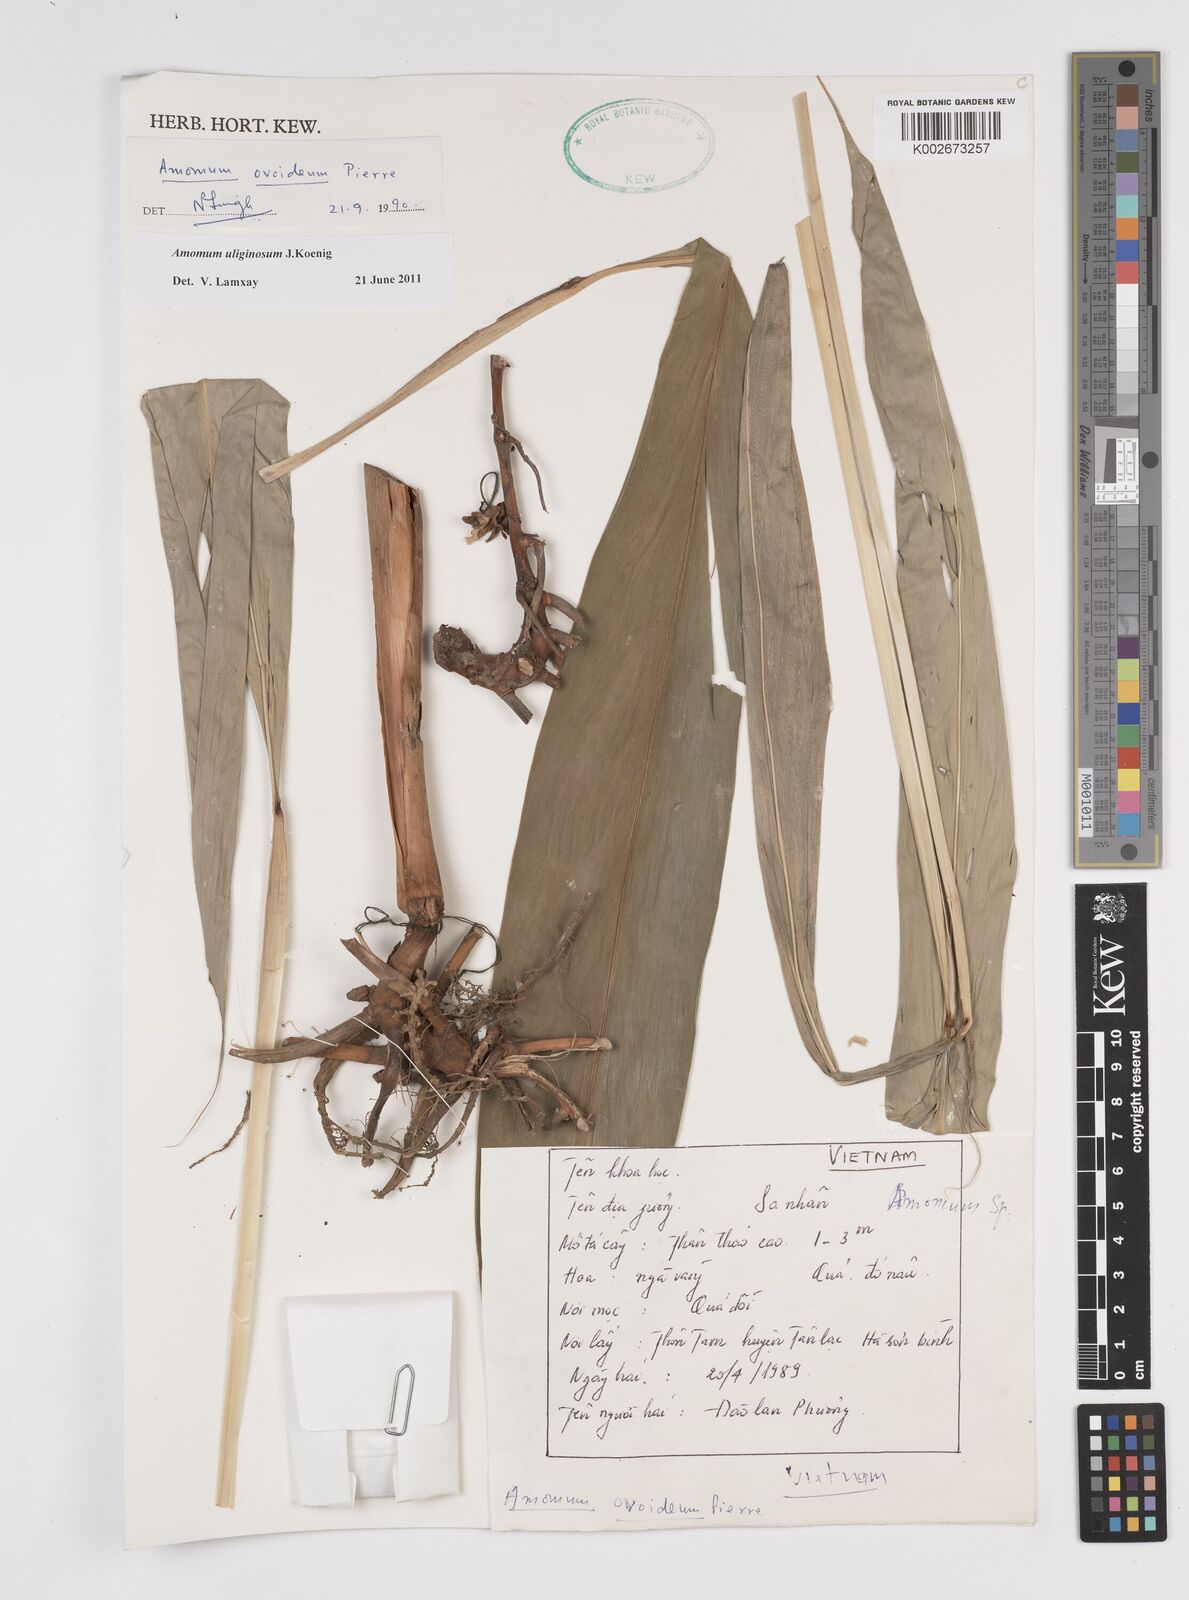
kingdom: Plantae
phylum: Tracheophyta
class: Liliopsida
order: Zingiberales
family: Zingiberaceae
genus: Wurfbainia
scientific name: Wurfbainia uliginosa
